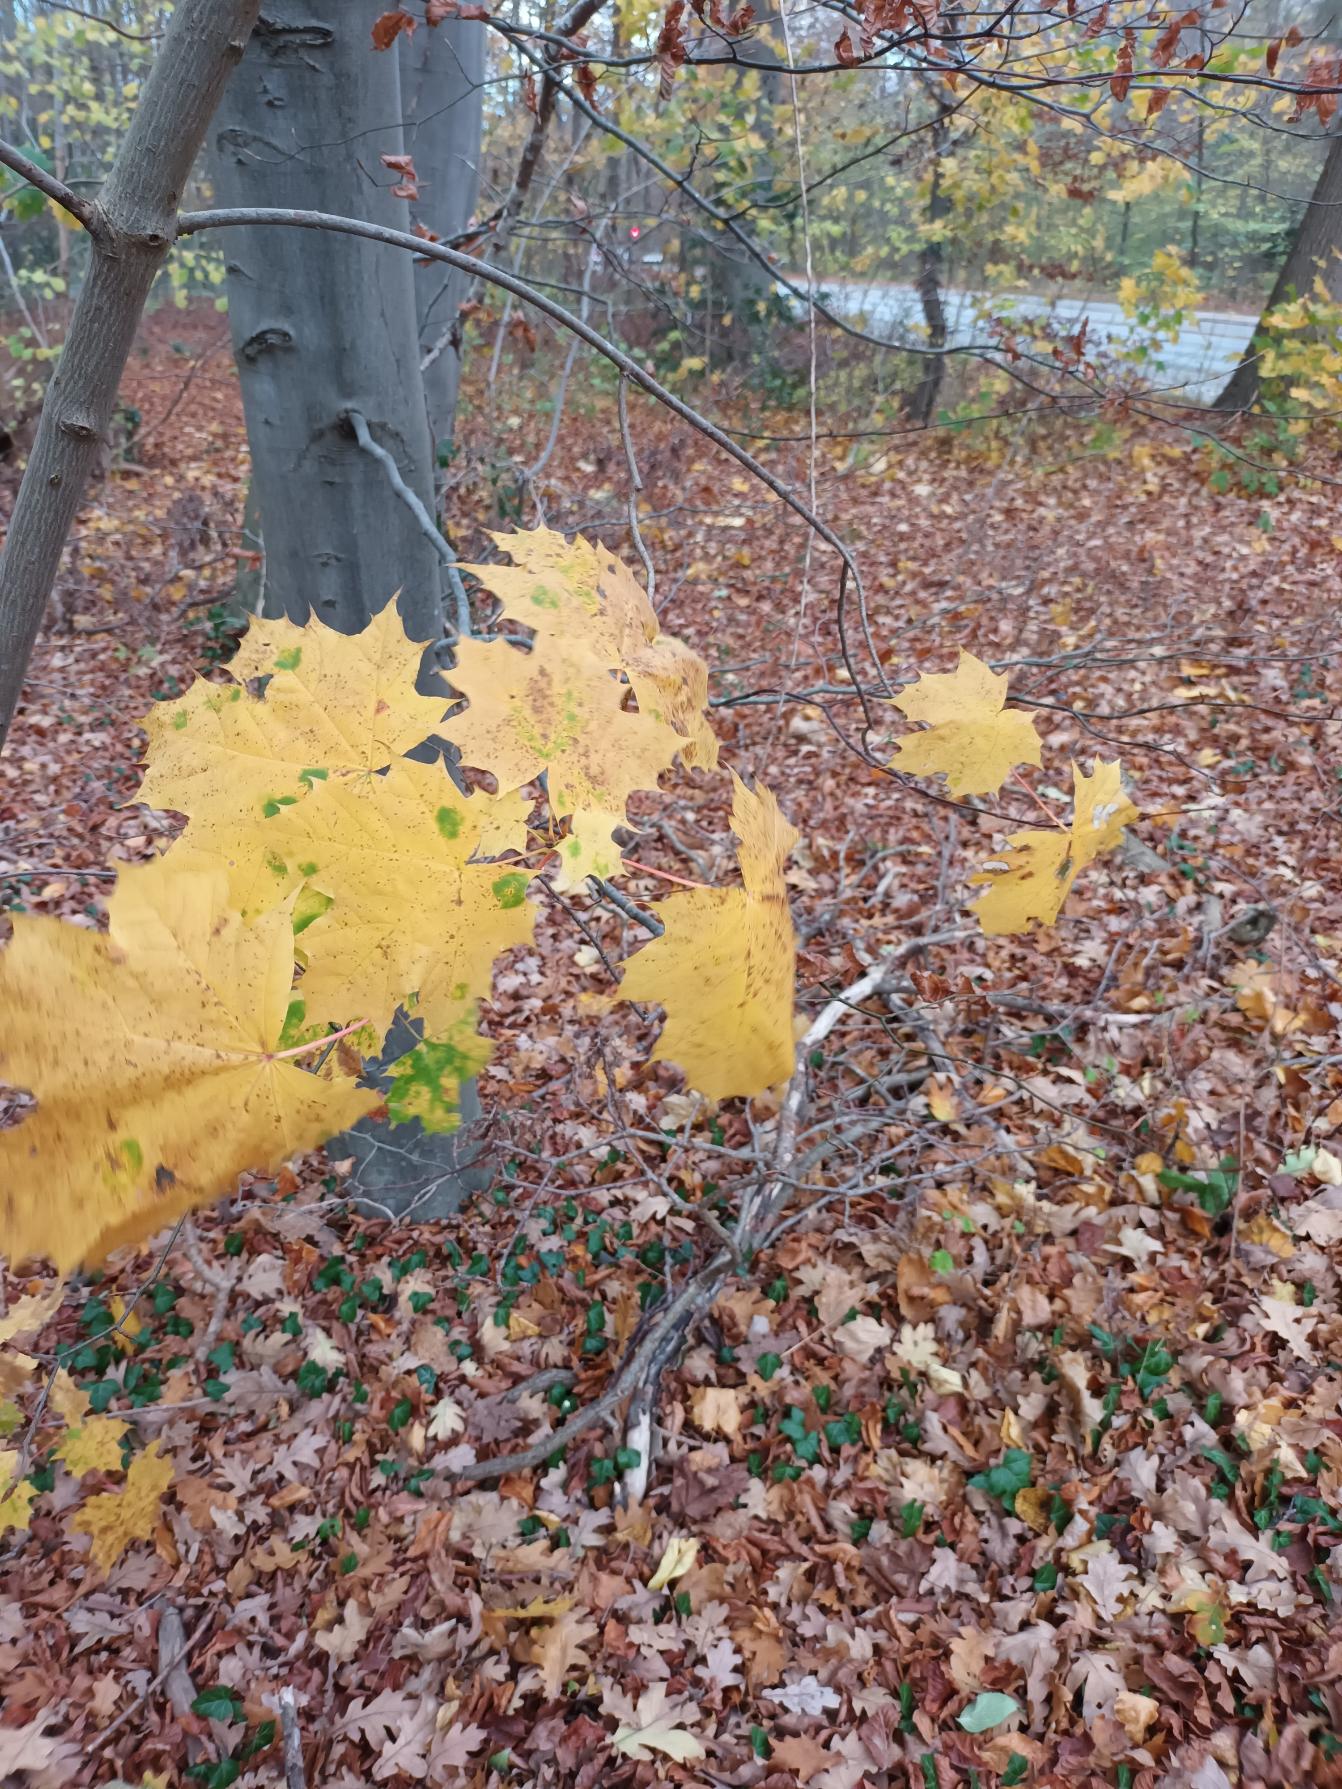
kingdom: Plantae
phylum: Tracheophyta
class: Magnoliopsida
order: Sapindales
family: Sapindaceae
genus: Acer
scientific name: Acer platanoides
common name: Spids-løn
